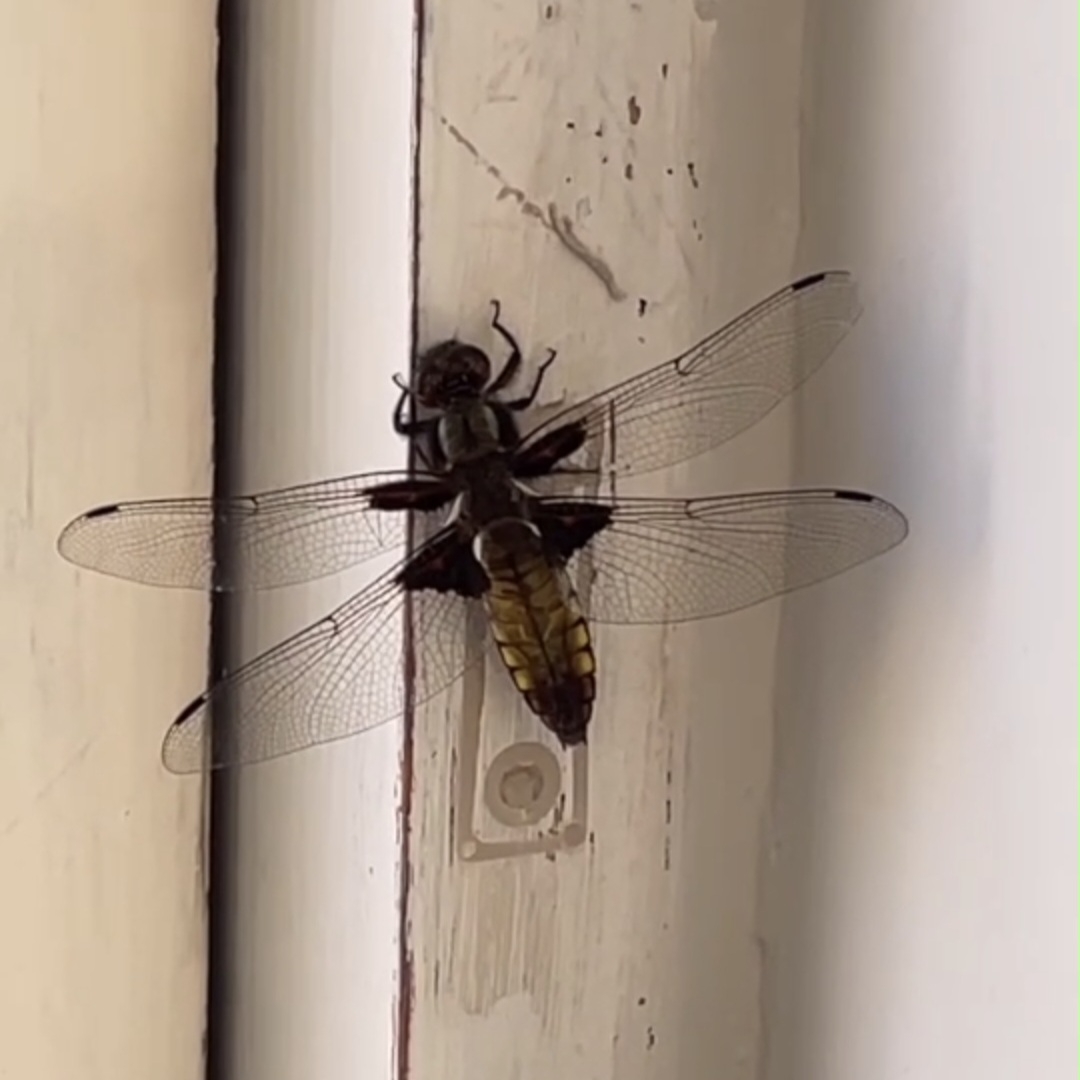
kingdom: Animalia
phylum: Arthropoda
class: Insecta
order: Odonata
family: Libellulidae
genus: Libellula
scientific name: Libellula depressa
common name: Blå libel
